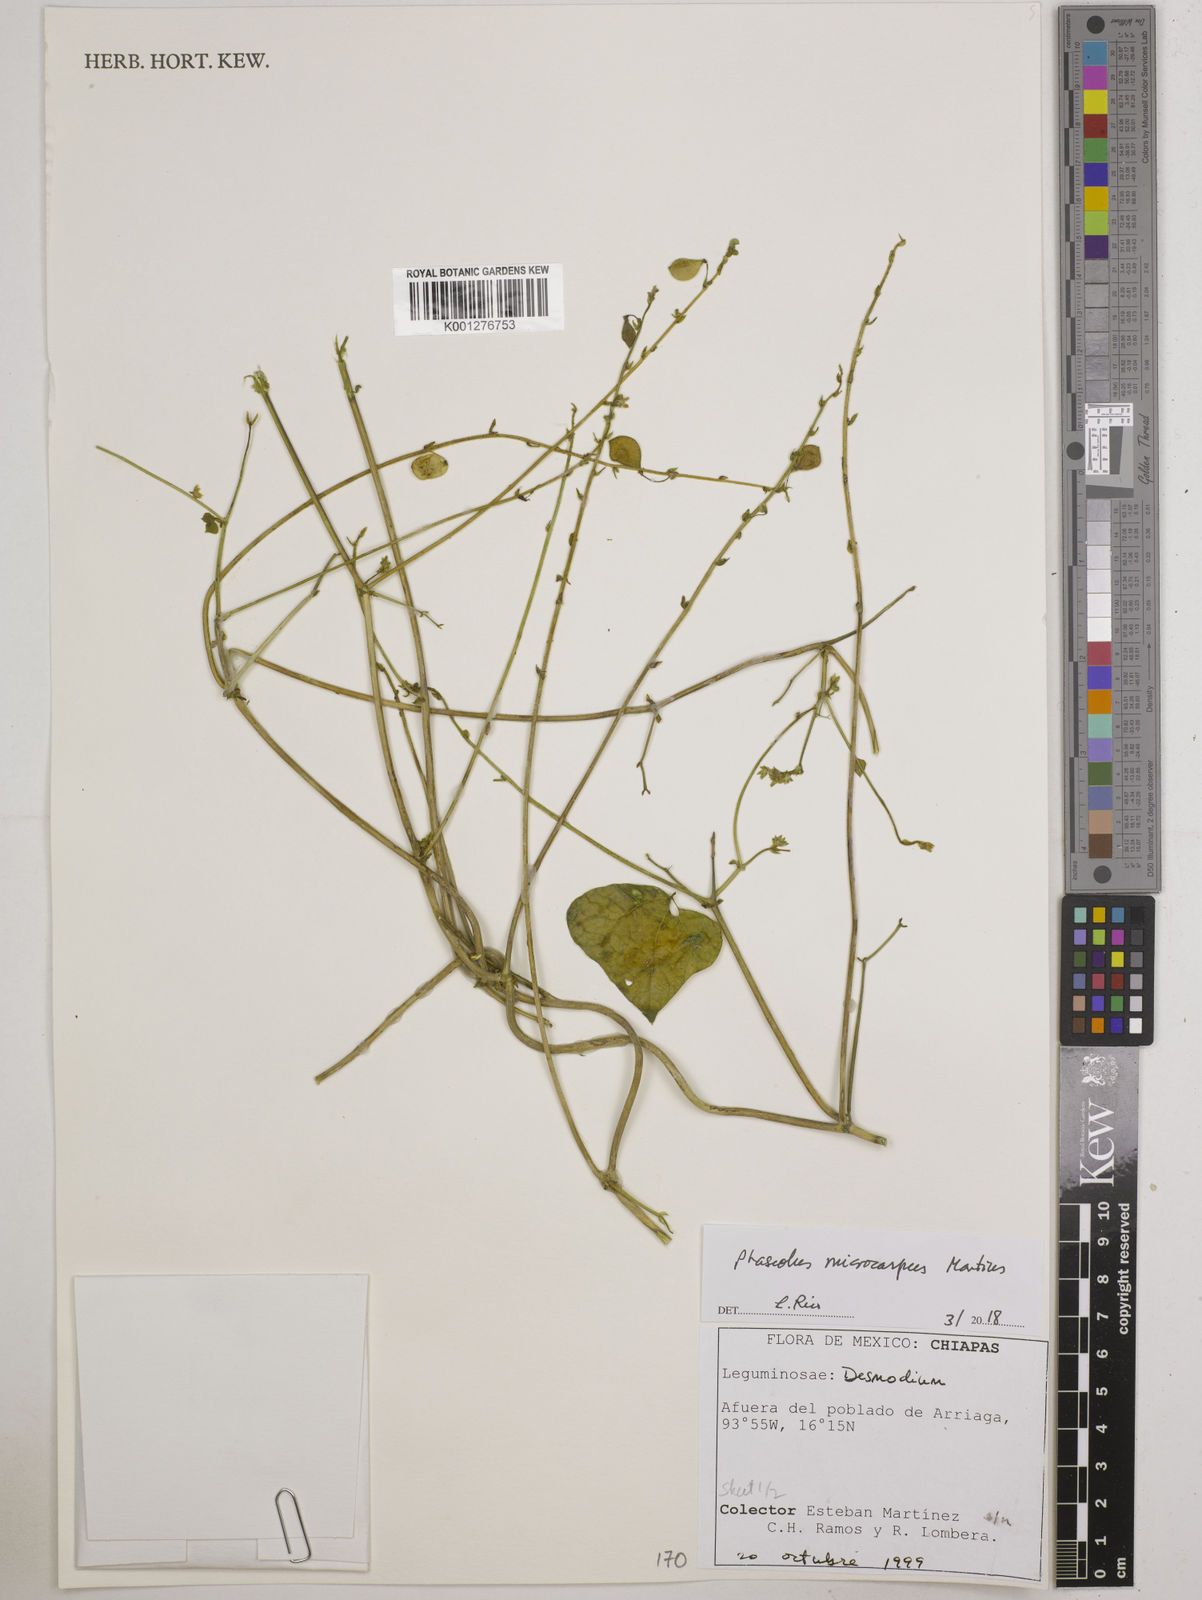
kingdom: Plantae
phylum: Tracheophyta
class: Magnoliopsida
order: Fabales
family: Fabaceae
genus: Phaseolus
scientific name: Phaseolus microcarpus
